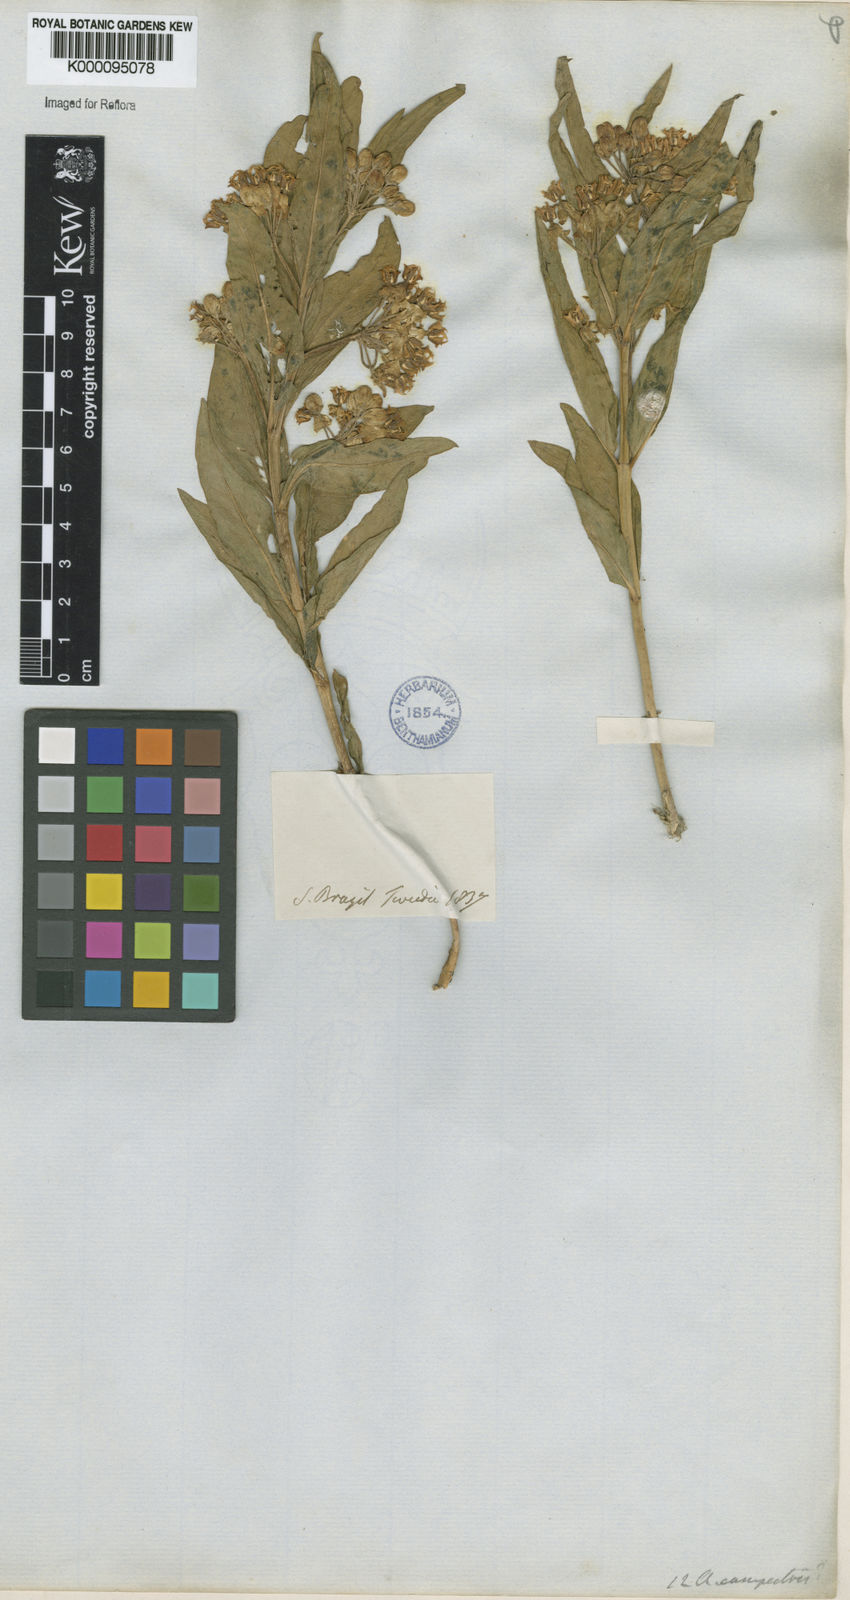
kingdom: Plantae
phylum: Tracheophyta
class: Magnoliopsida
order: Gentianales
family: Apocynaceae
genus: Asclepias
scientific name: Asclepias mellodora
